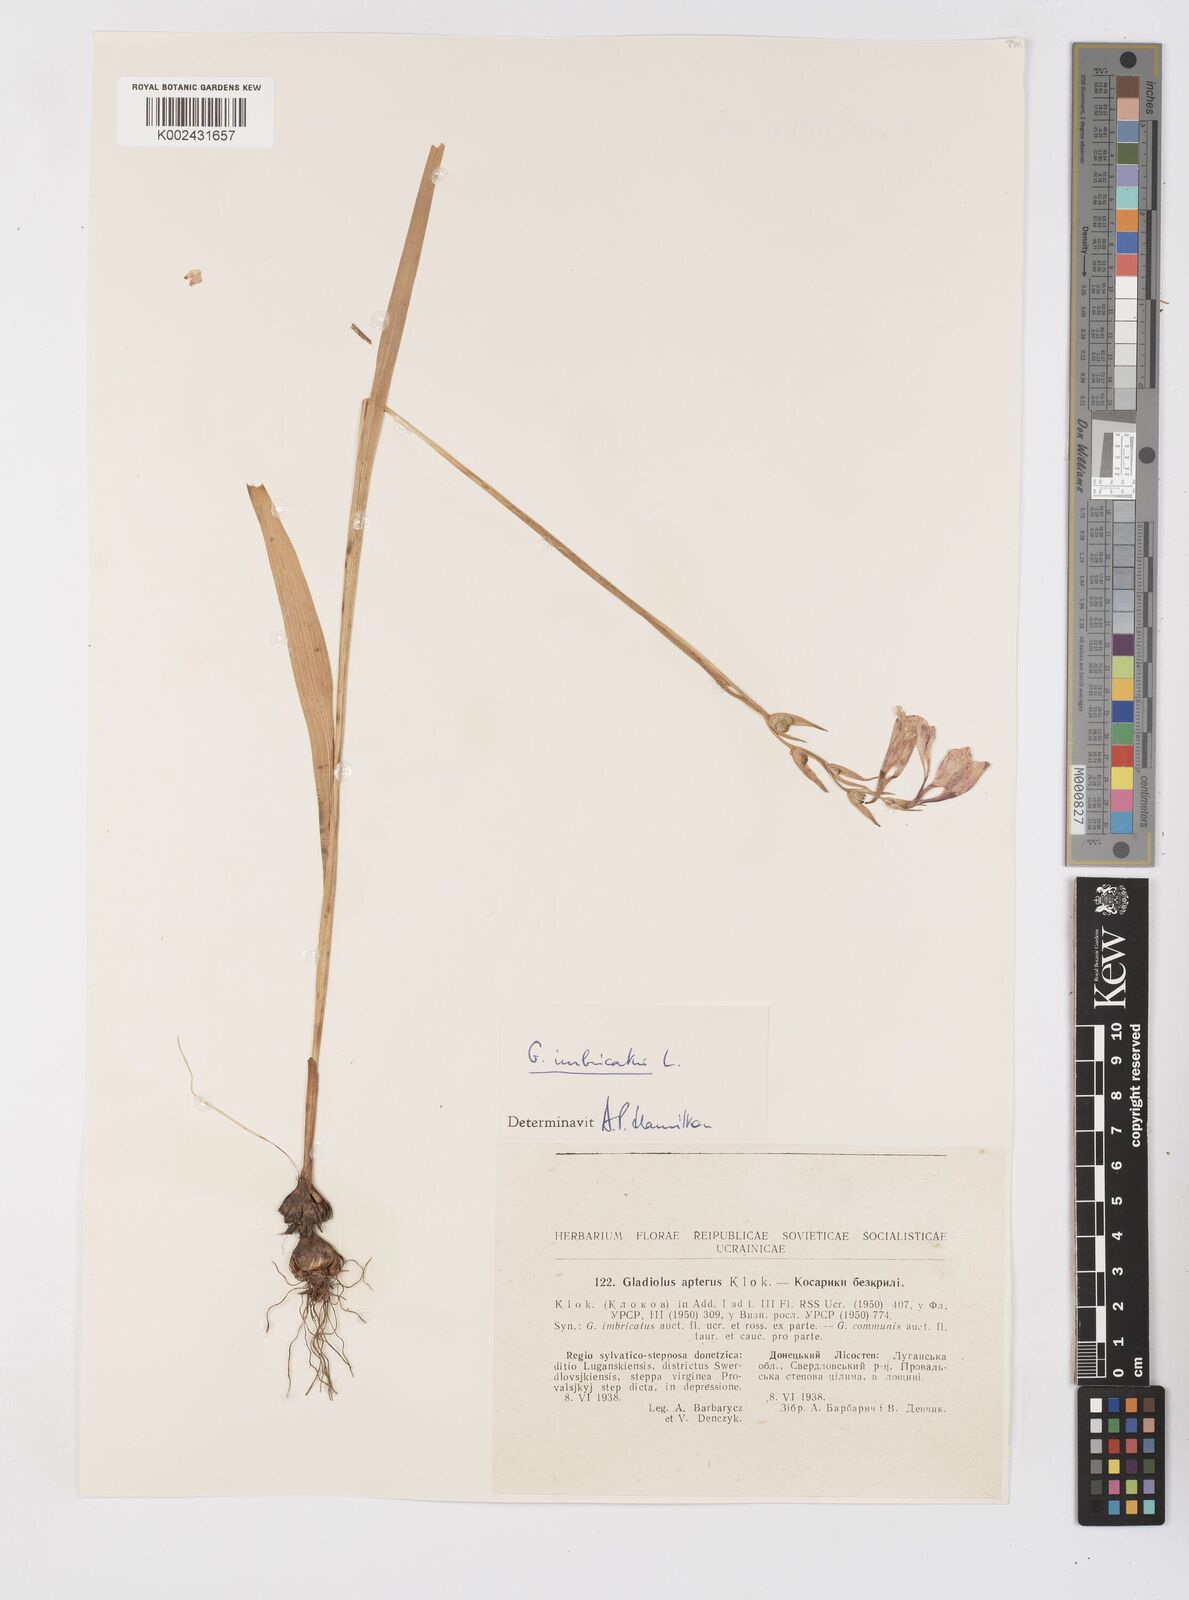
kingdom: Plantae
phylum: Tracheophyta
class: Liliopsida
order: Asparagales
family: Iridaceae
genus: Gladiolus
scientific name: Gladiolus imbricatus
